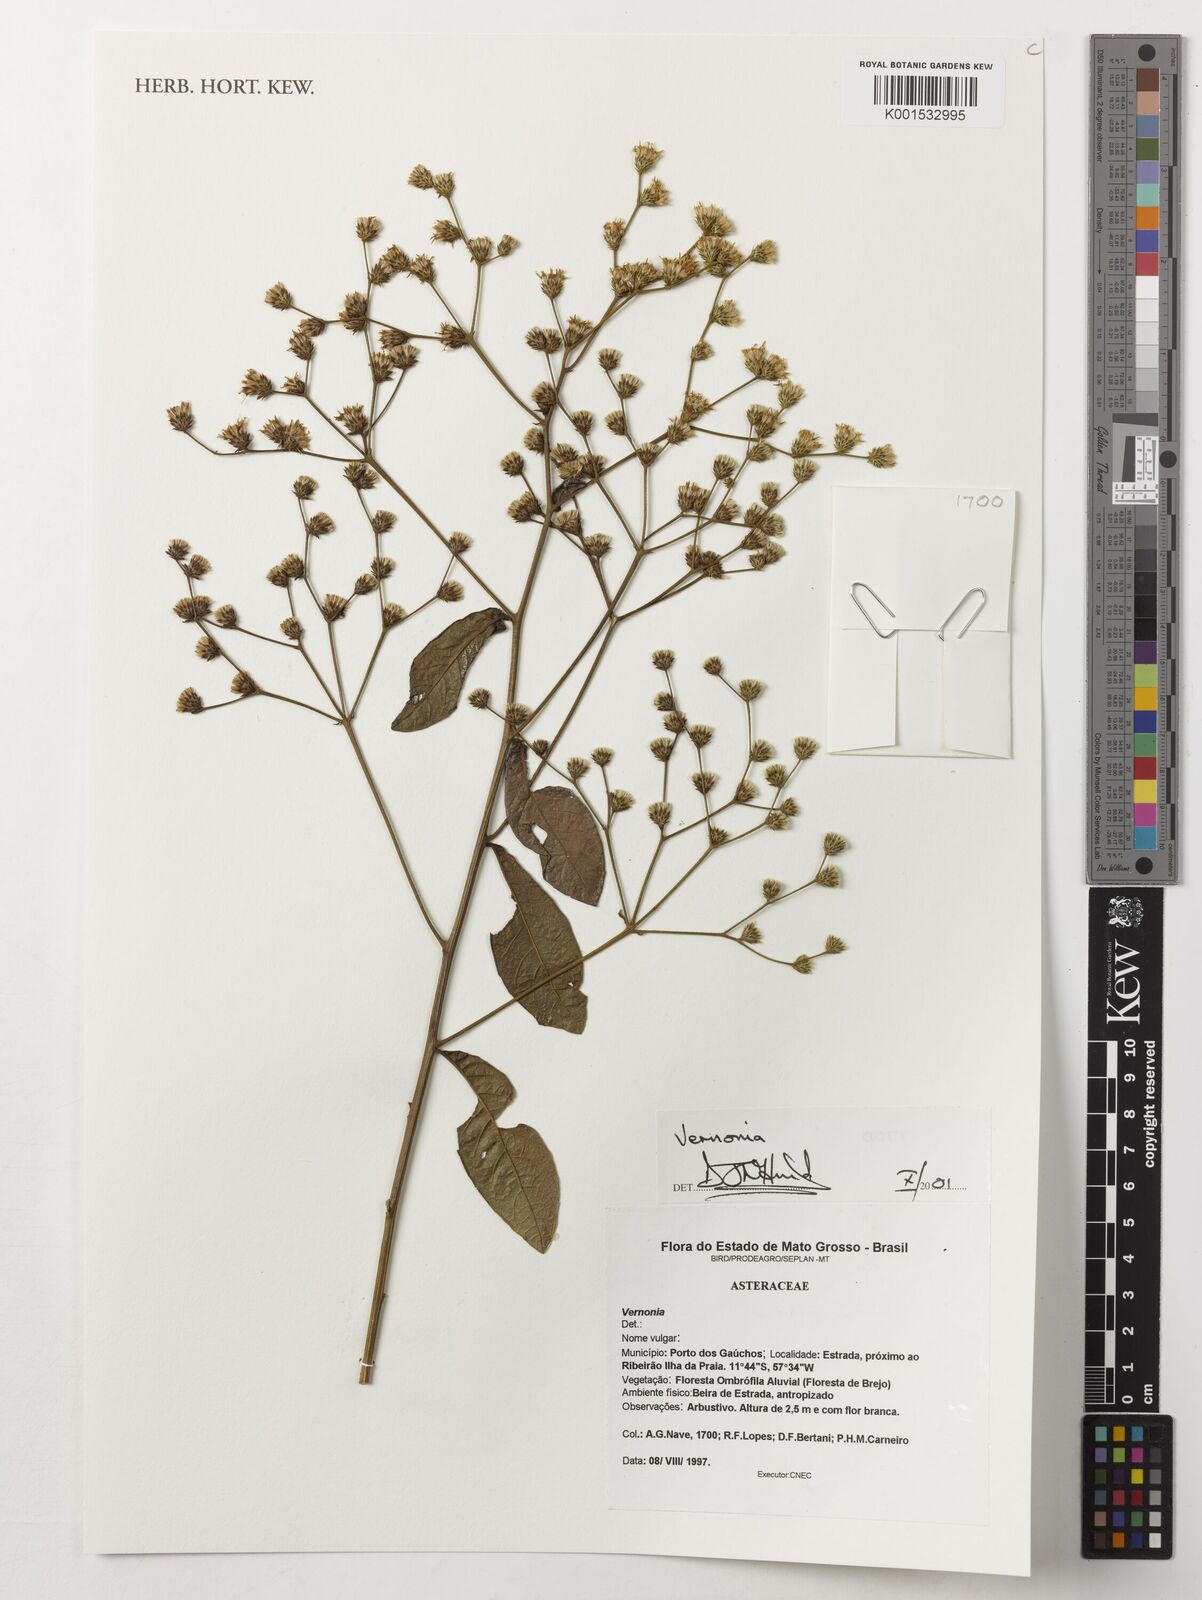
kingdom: Plantae
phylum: Tracheophyta
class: Magnoliopsida
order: Asterales
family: Asteraceae
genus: Vernonia
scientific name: Vernonia
